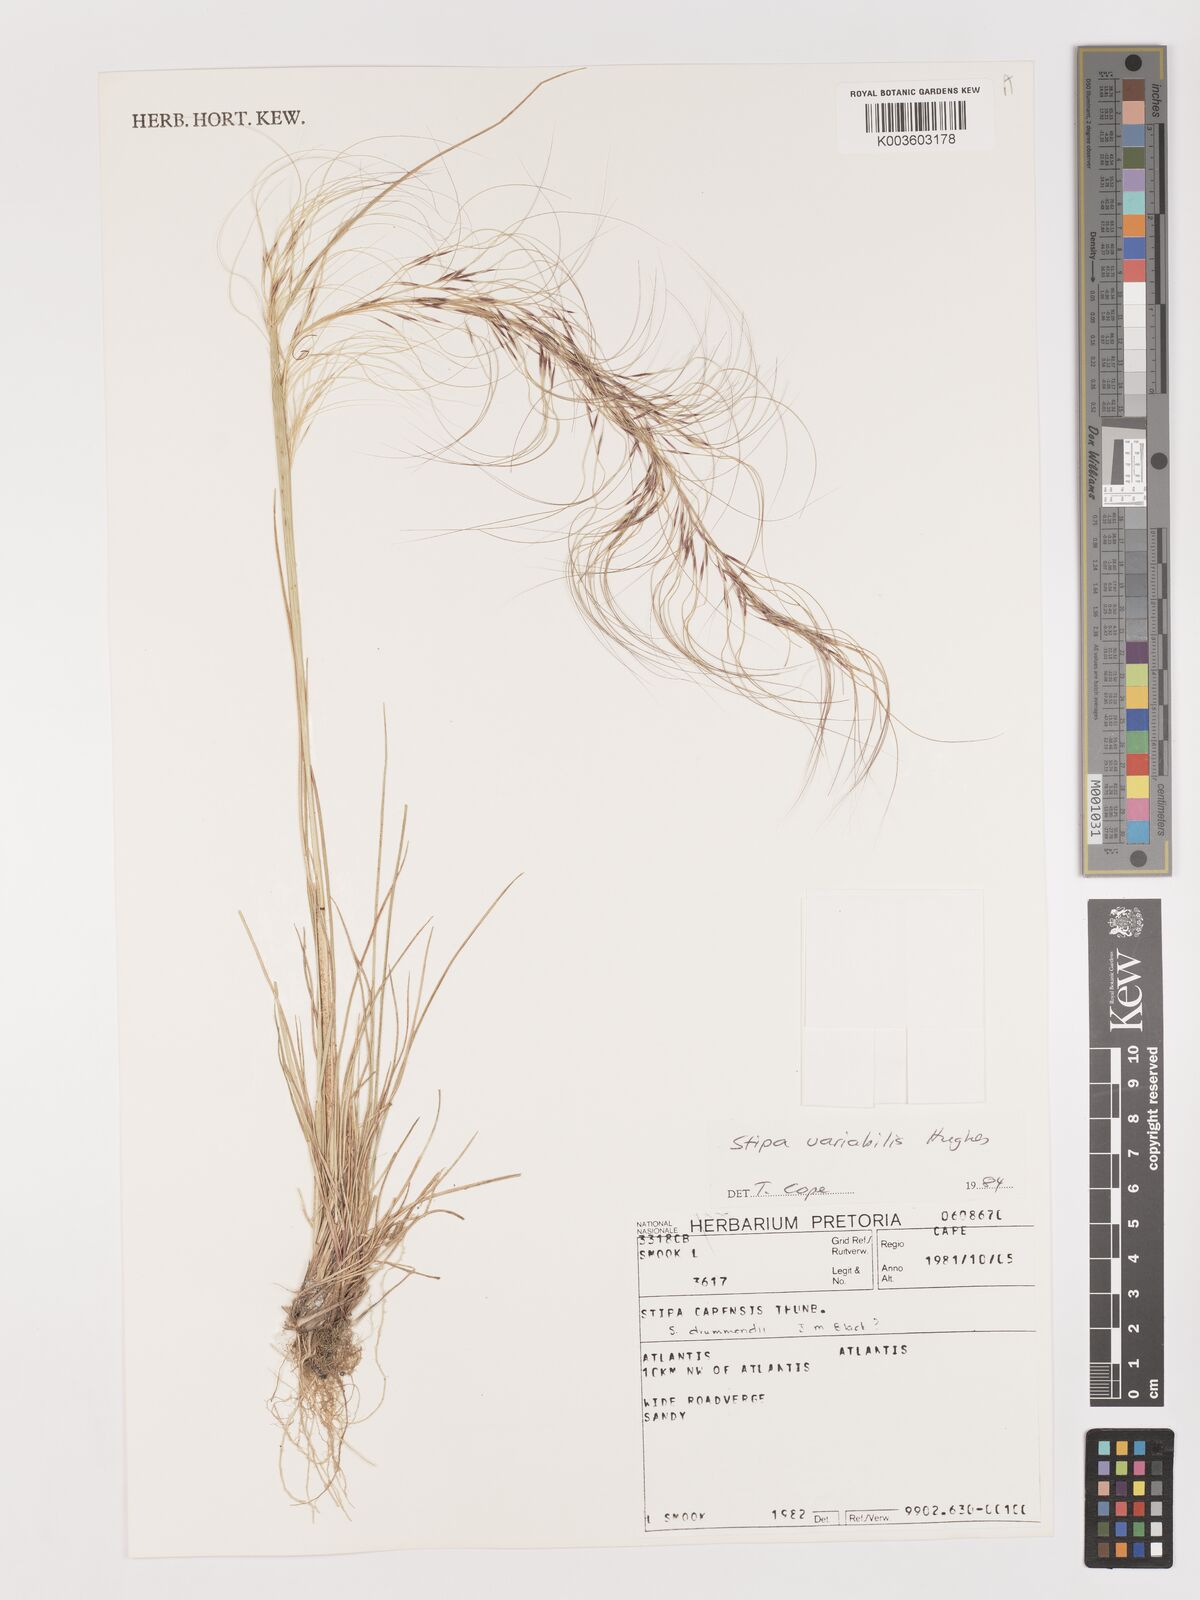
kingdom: Plantae
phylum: Tracheophyta
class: Liliopsida
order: Poales
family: Poaceae
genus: Austrostipa
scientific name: Austrostipa variabilis
